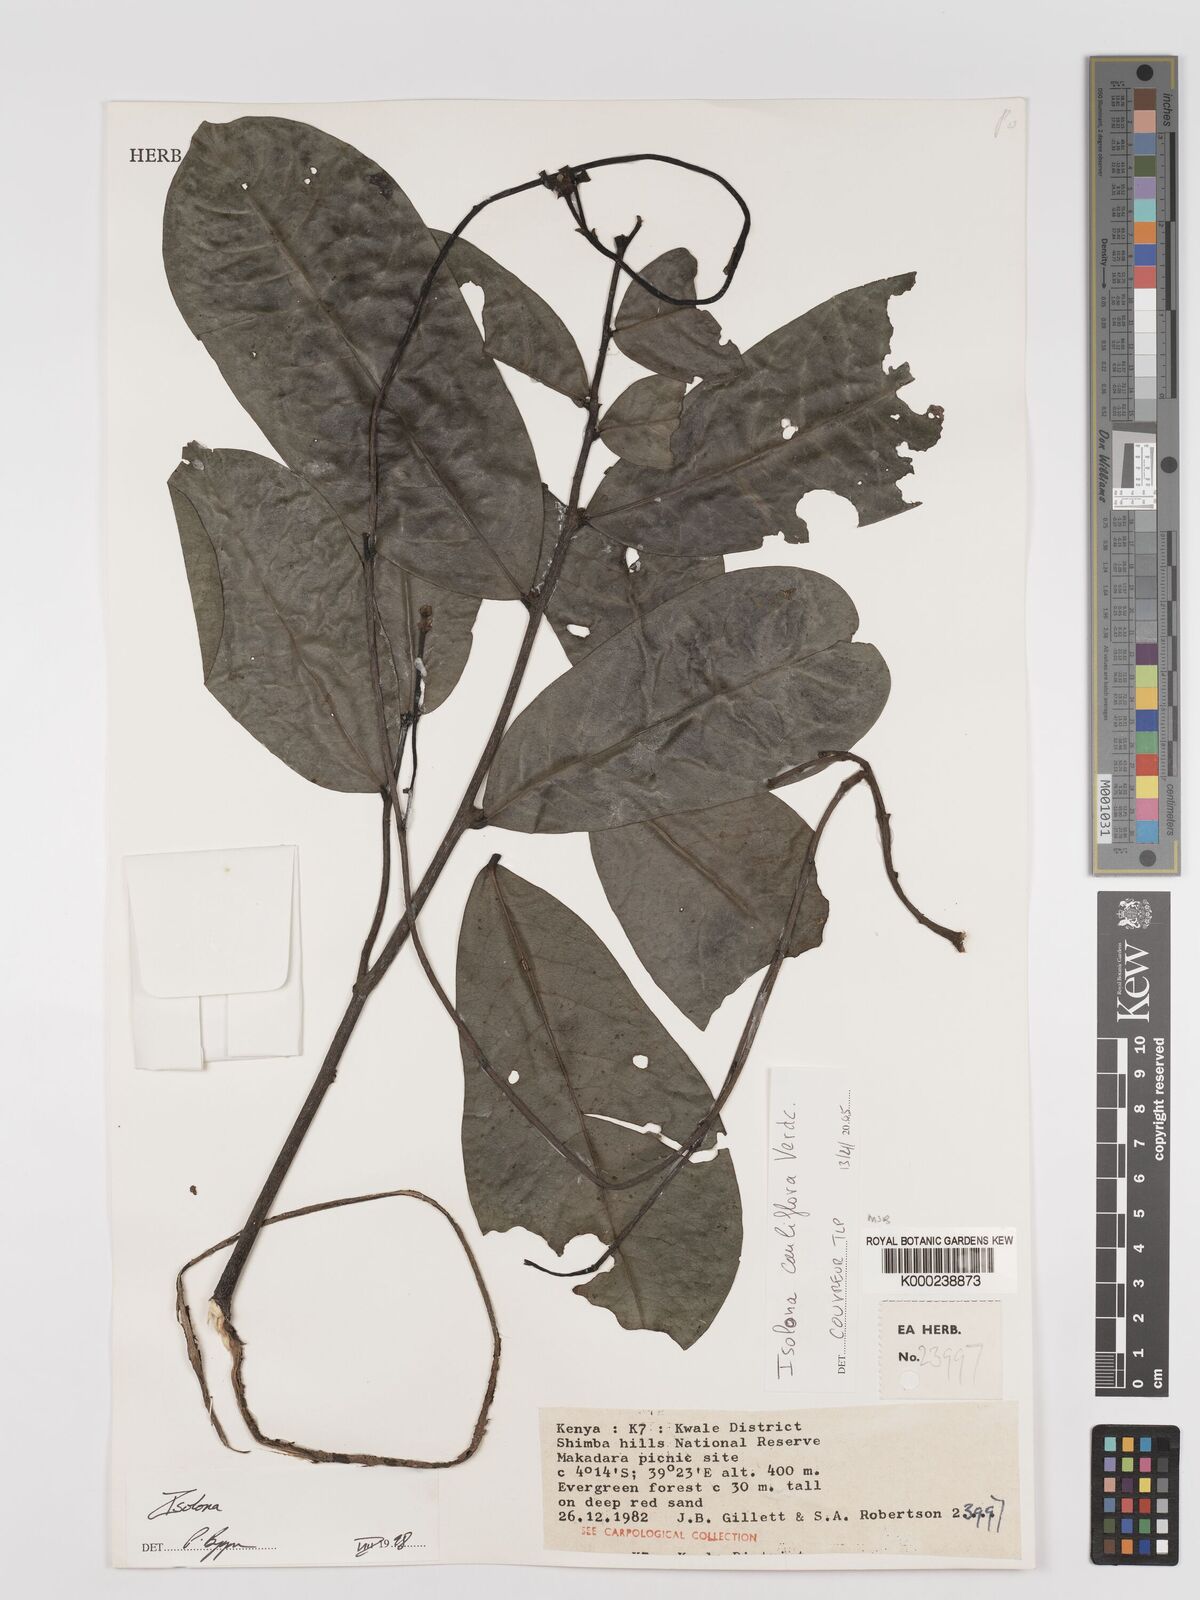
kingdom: Plantae
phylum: Tracheophyta
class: Magnoliopsida
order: Magnoliales
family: Annonaceae
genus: Isolona
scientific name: Isolona cauliflora
